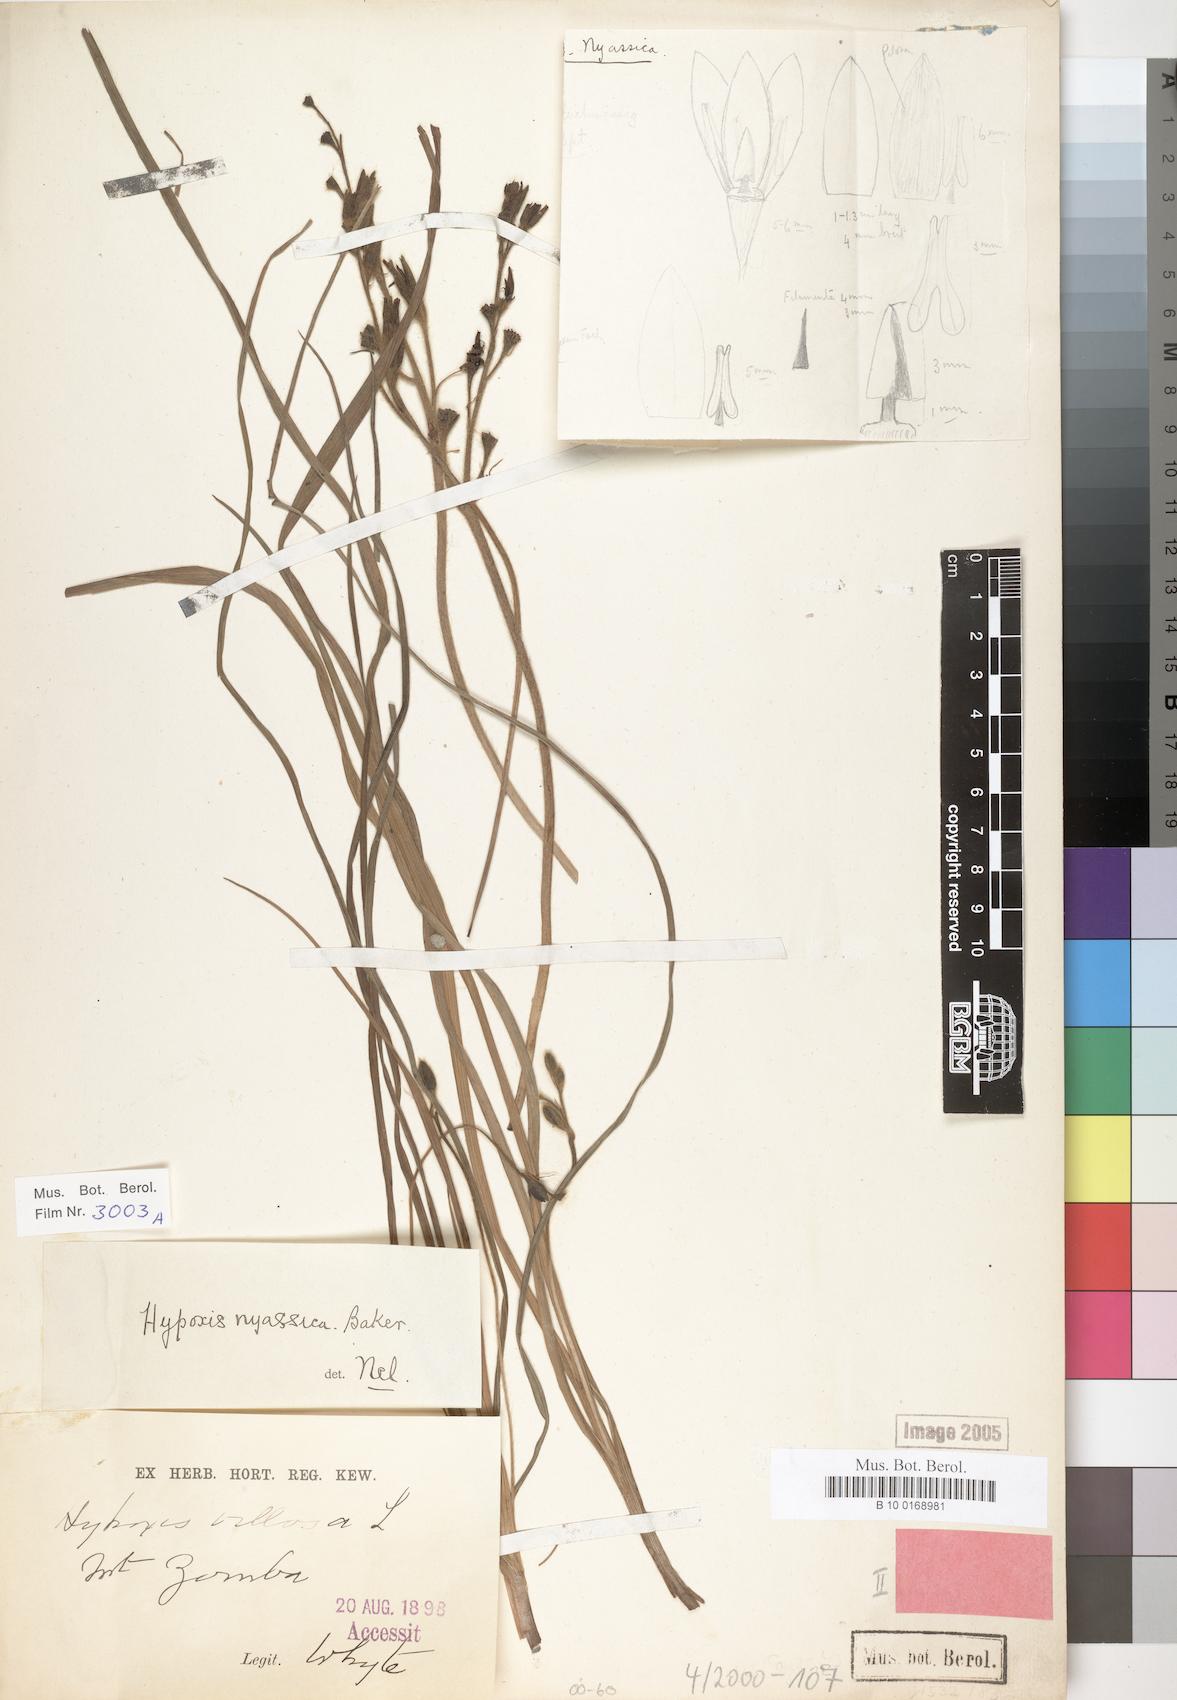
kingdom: Plantae
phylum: Tracheophyta
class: Liliopsida
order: Asparagales
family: Hypoxidaceae
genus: Hypoxis
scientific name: Hypoxis villosa
